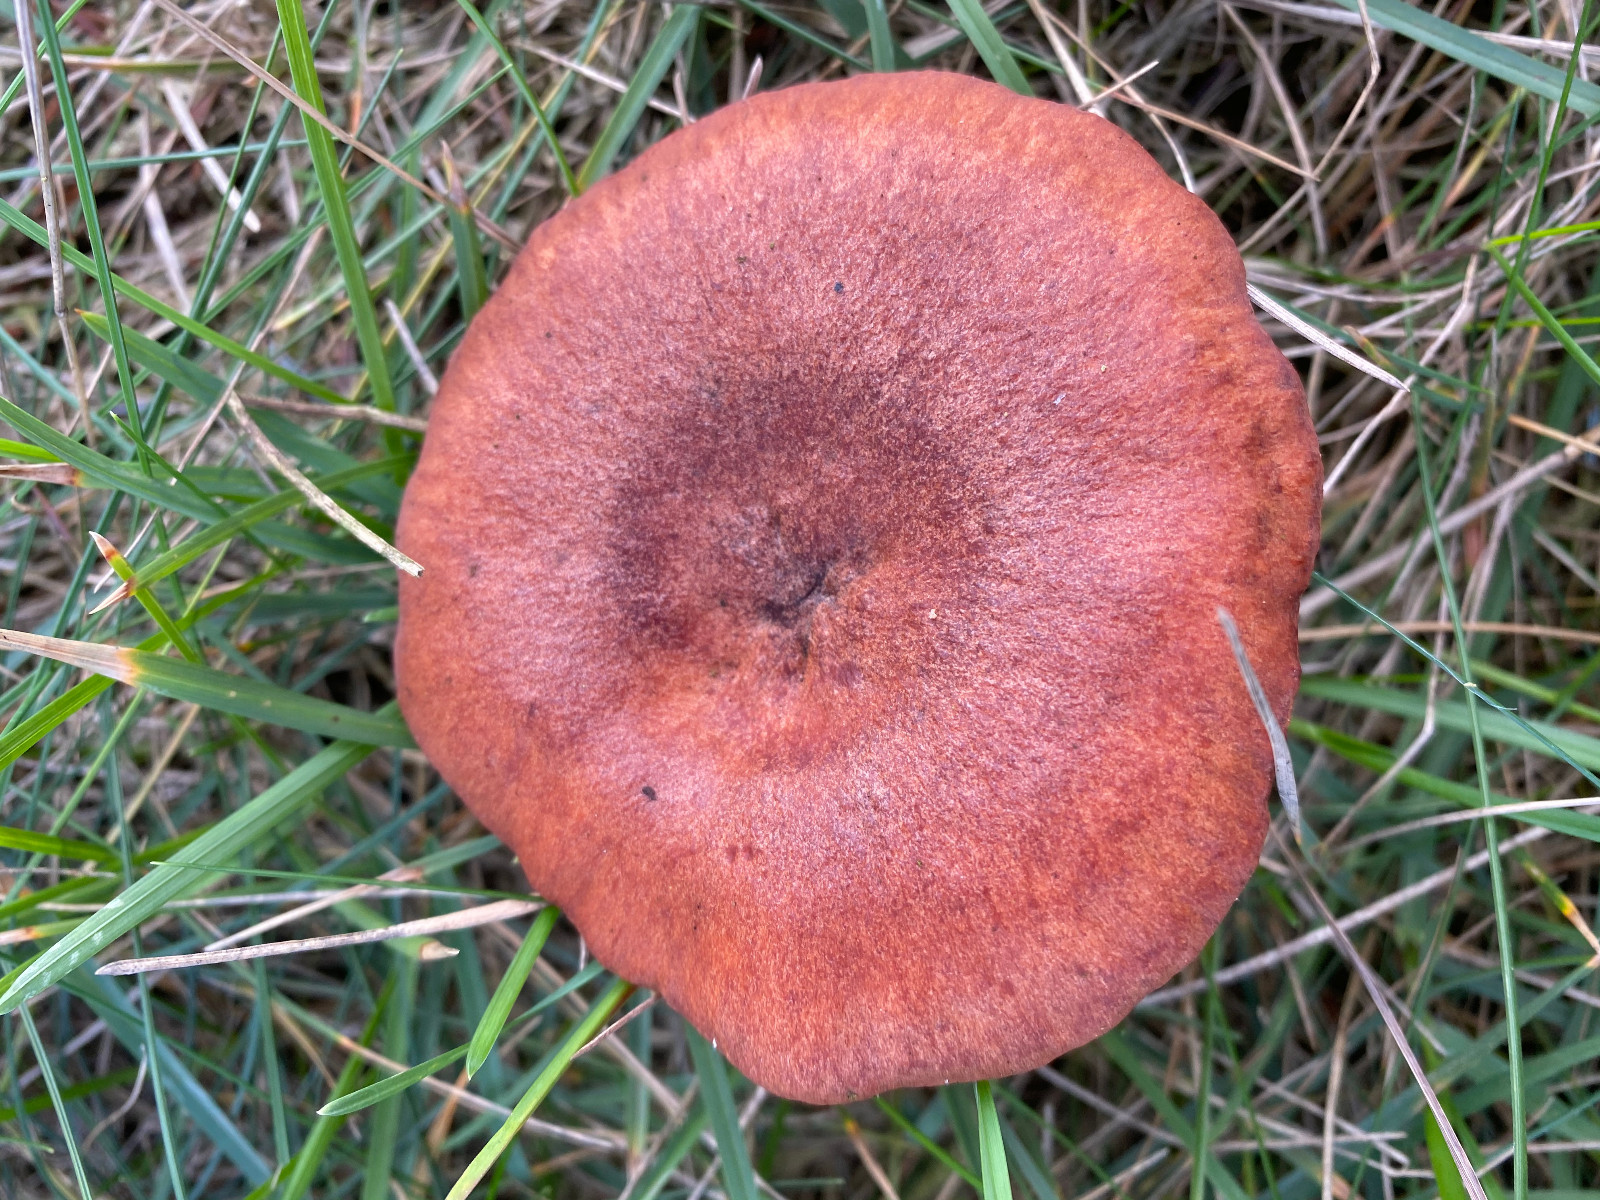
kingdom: Fungi
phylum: Basidiomycota
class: Agaricomycetes
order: Russulales
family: Russulaceae
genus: Lactarius
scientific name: Lactarius rufus
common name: rødbrun mælkehat
